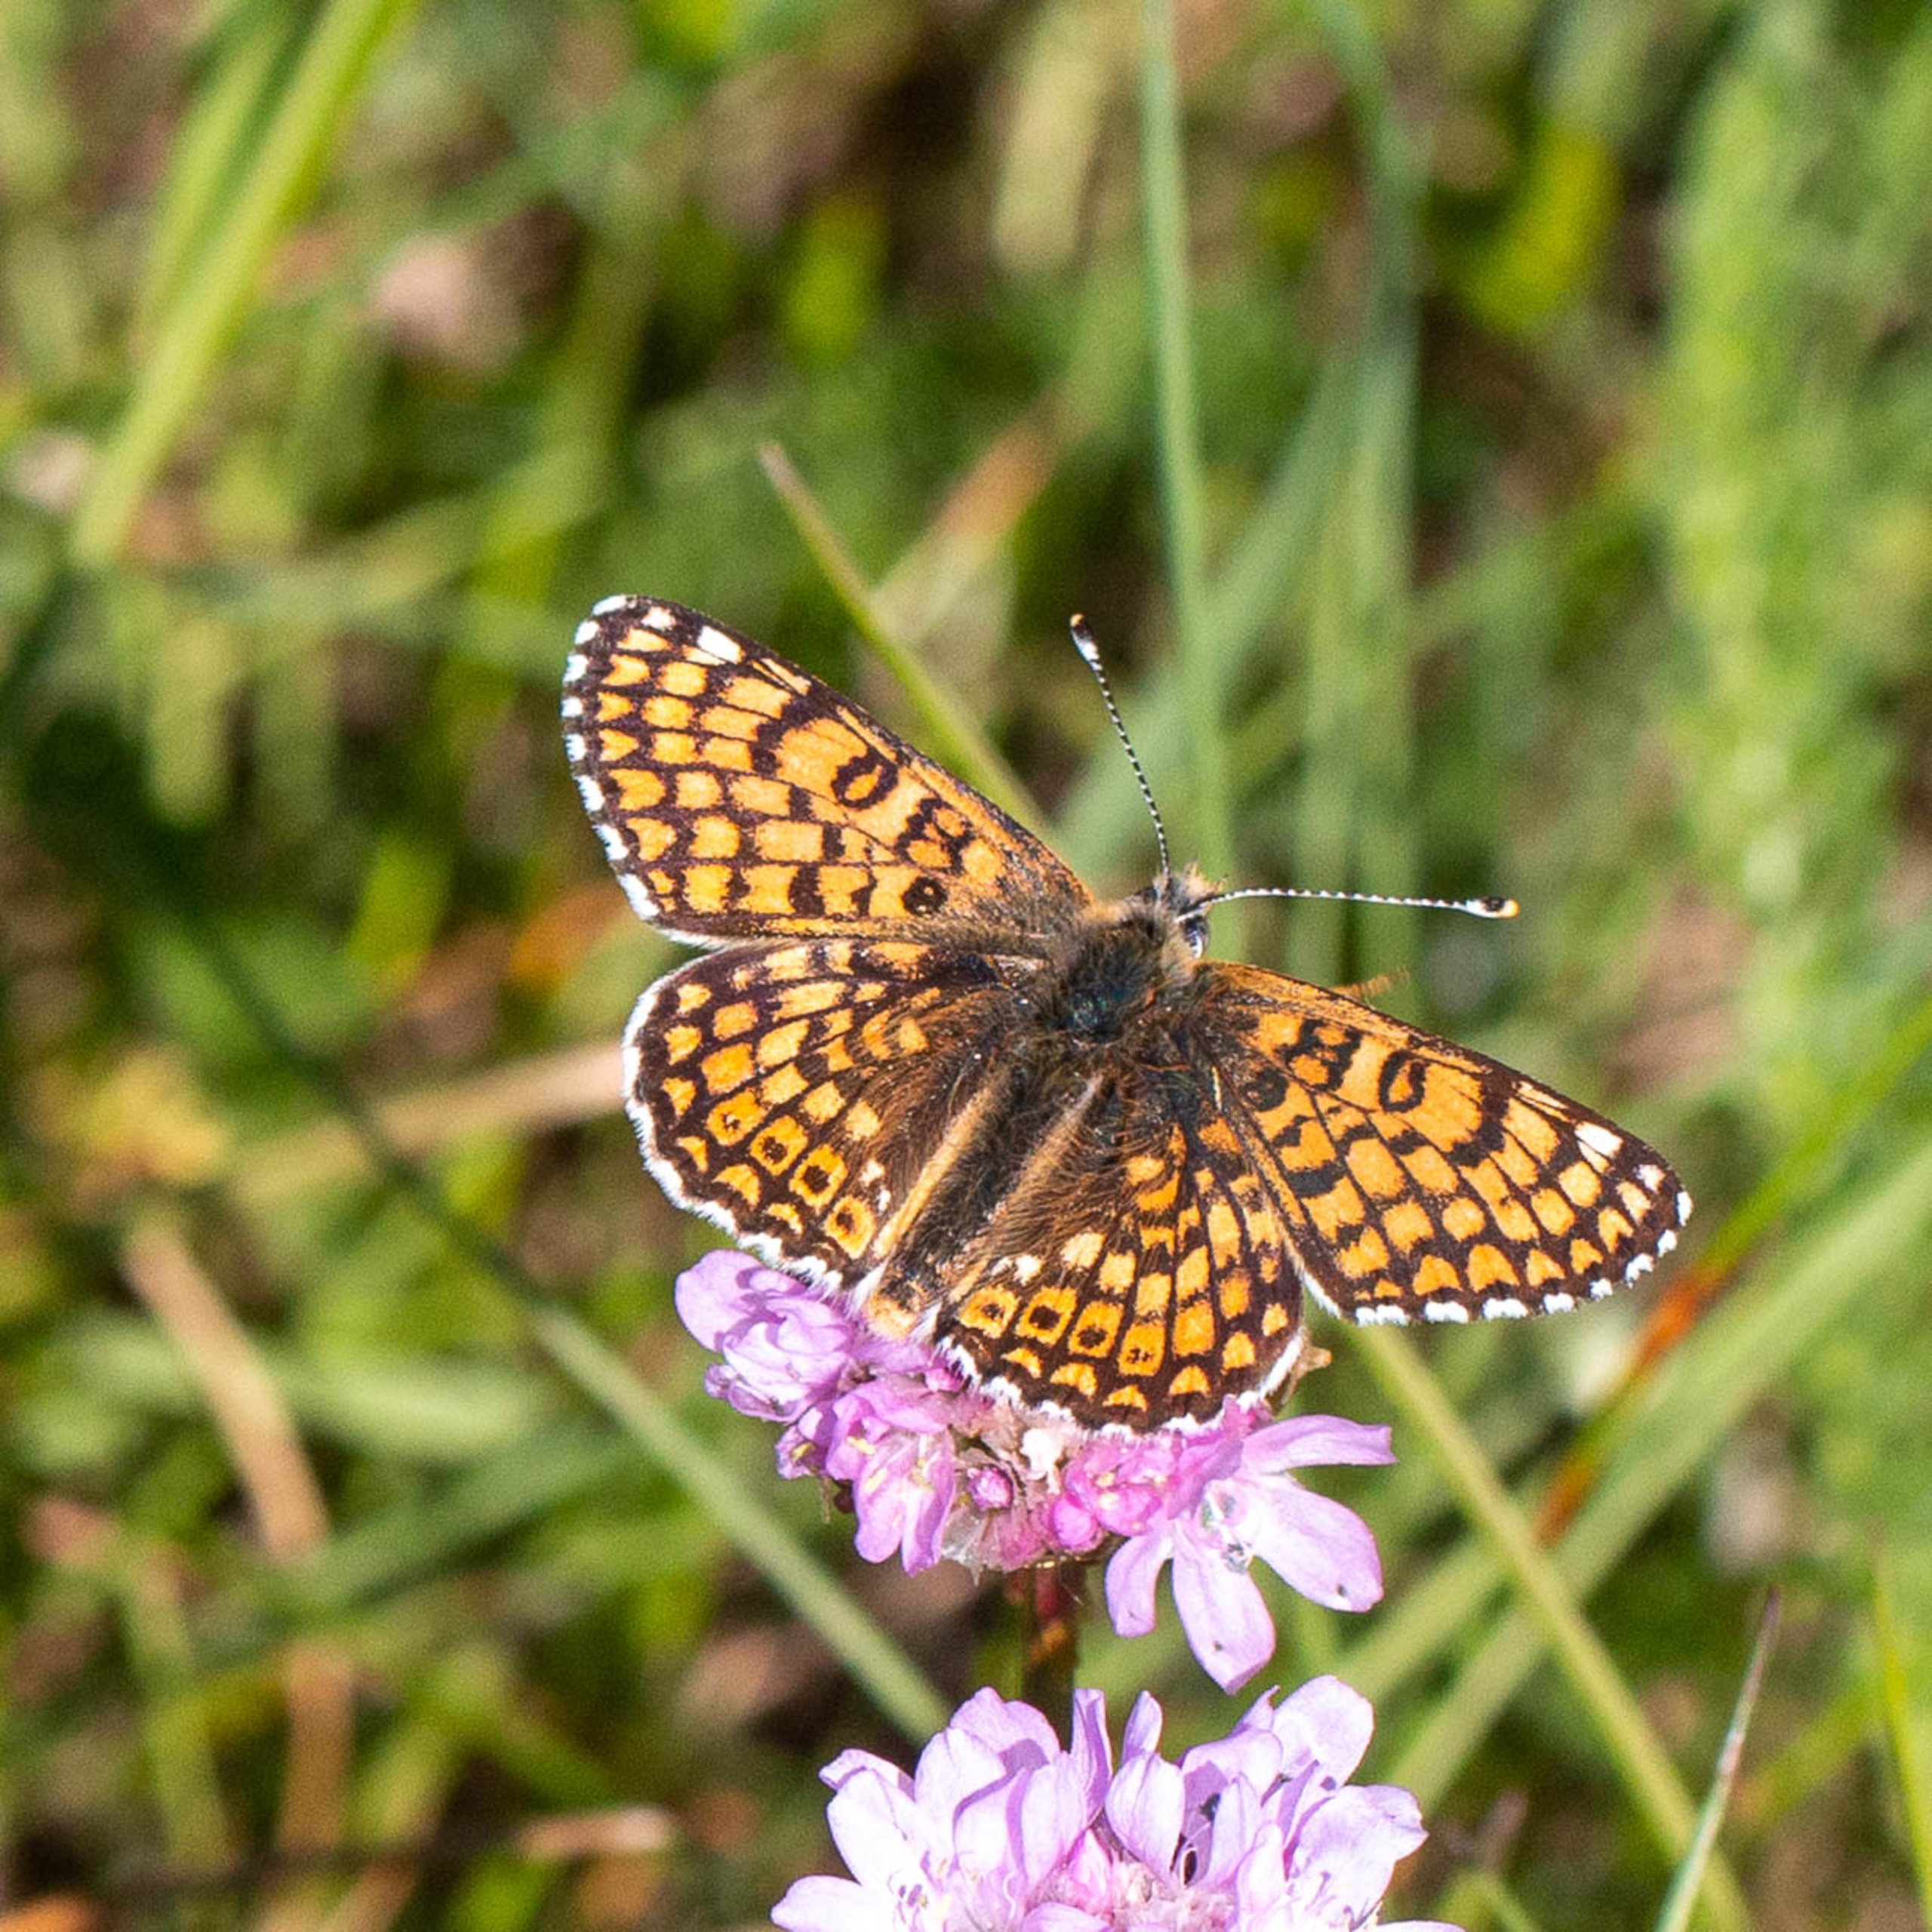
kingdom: Animalia
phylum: Arthropoda
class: Insecta
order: Lepidoptera
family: Nymphalidae
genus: Melitaea
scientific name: Melitaea cinxia
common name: Okkergul pletvinge
